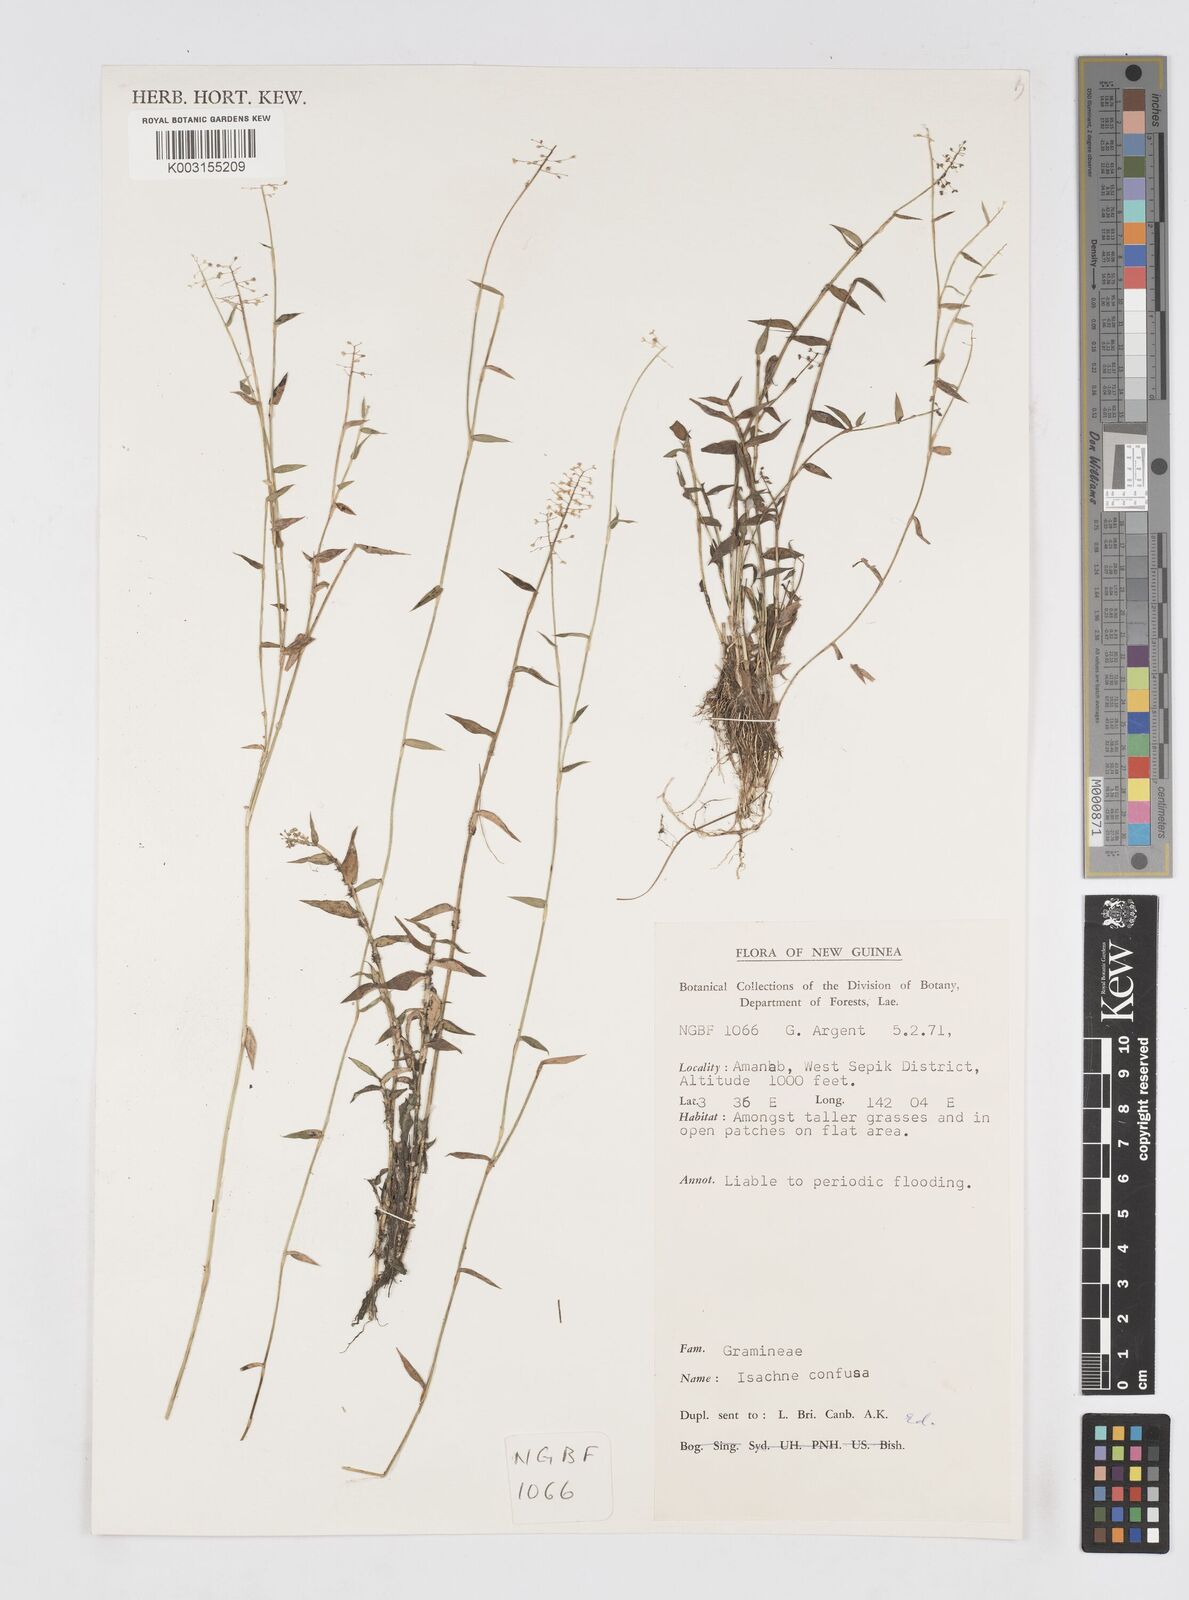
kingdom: Plantae
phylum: Tracheophyta
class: Liliopsida
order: Poales
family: Poaceae
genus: Isachne
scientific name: Isachne confusa
